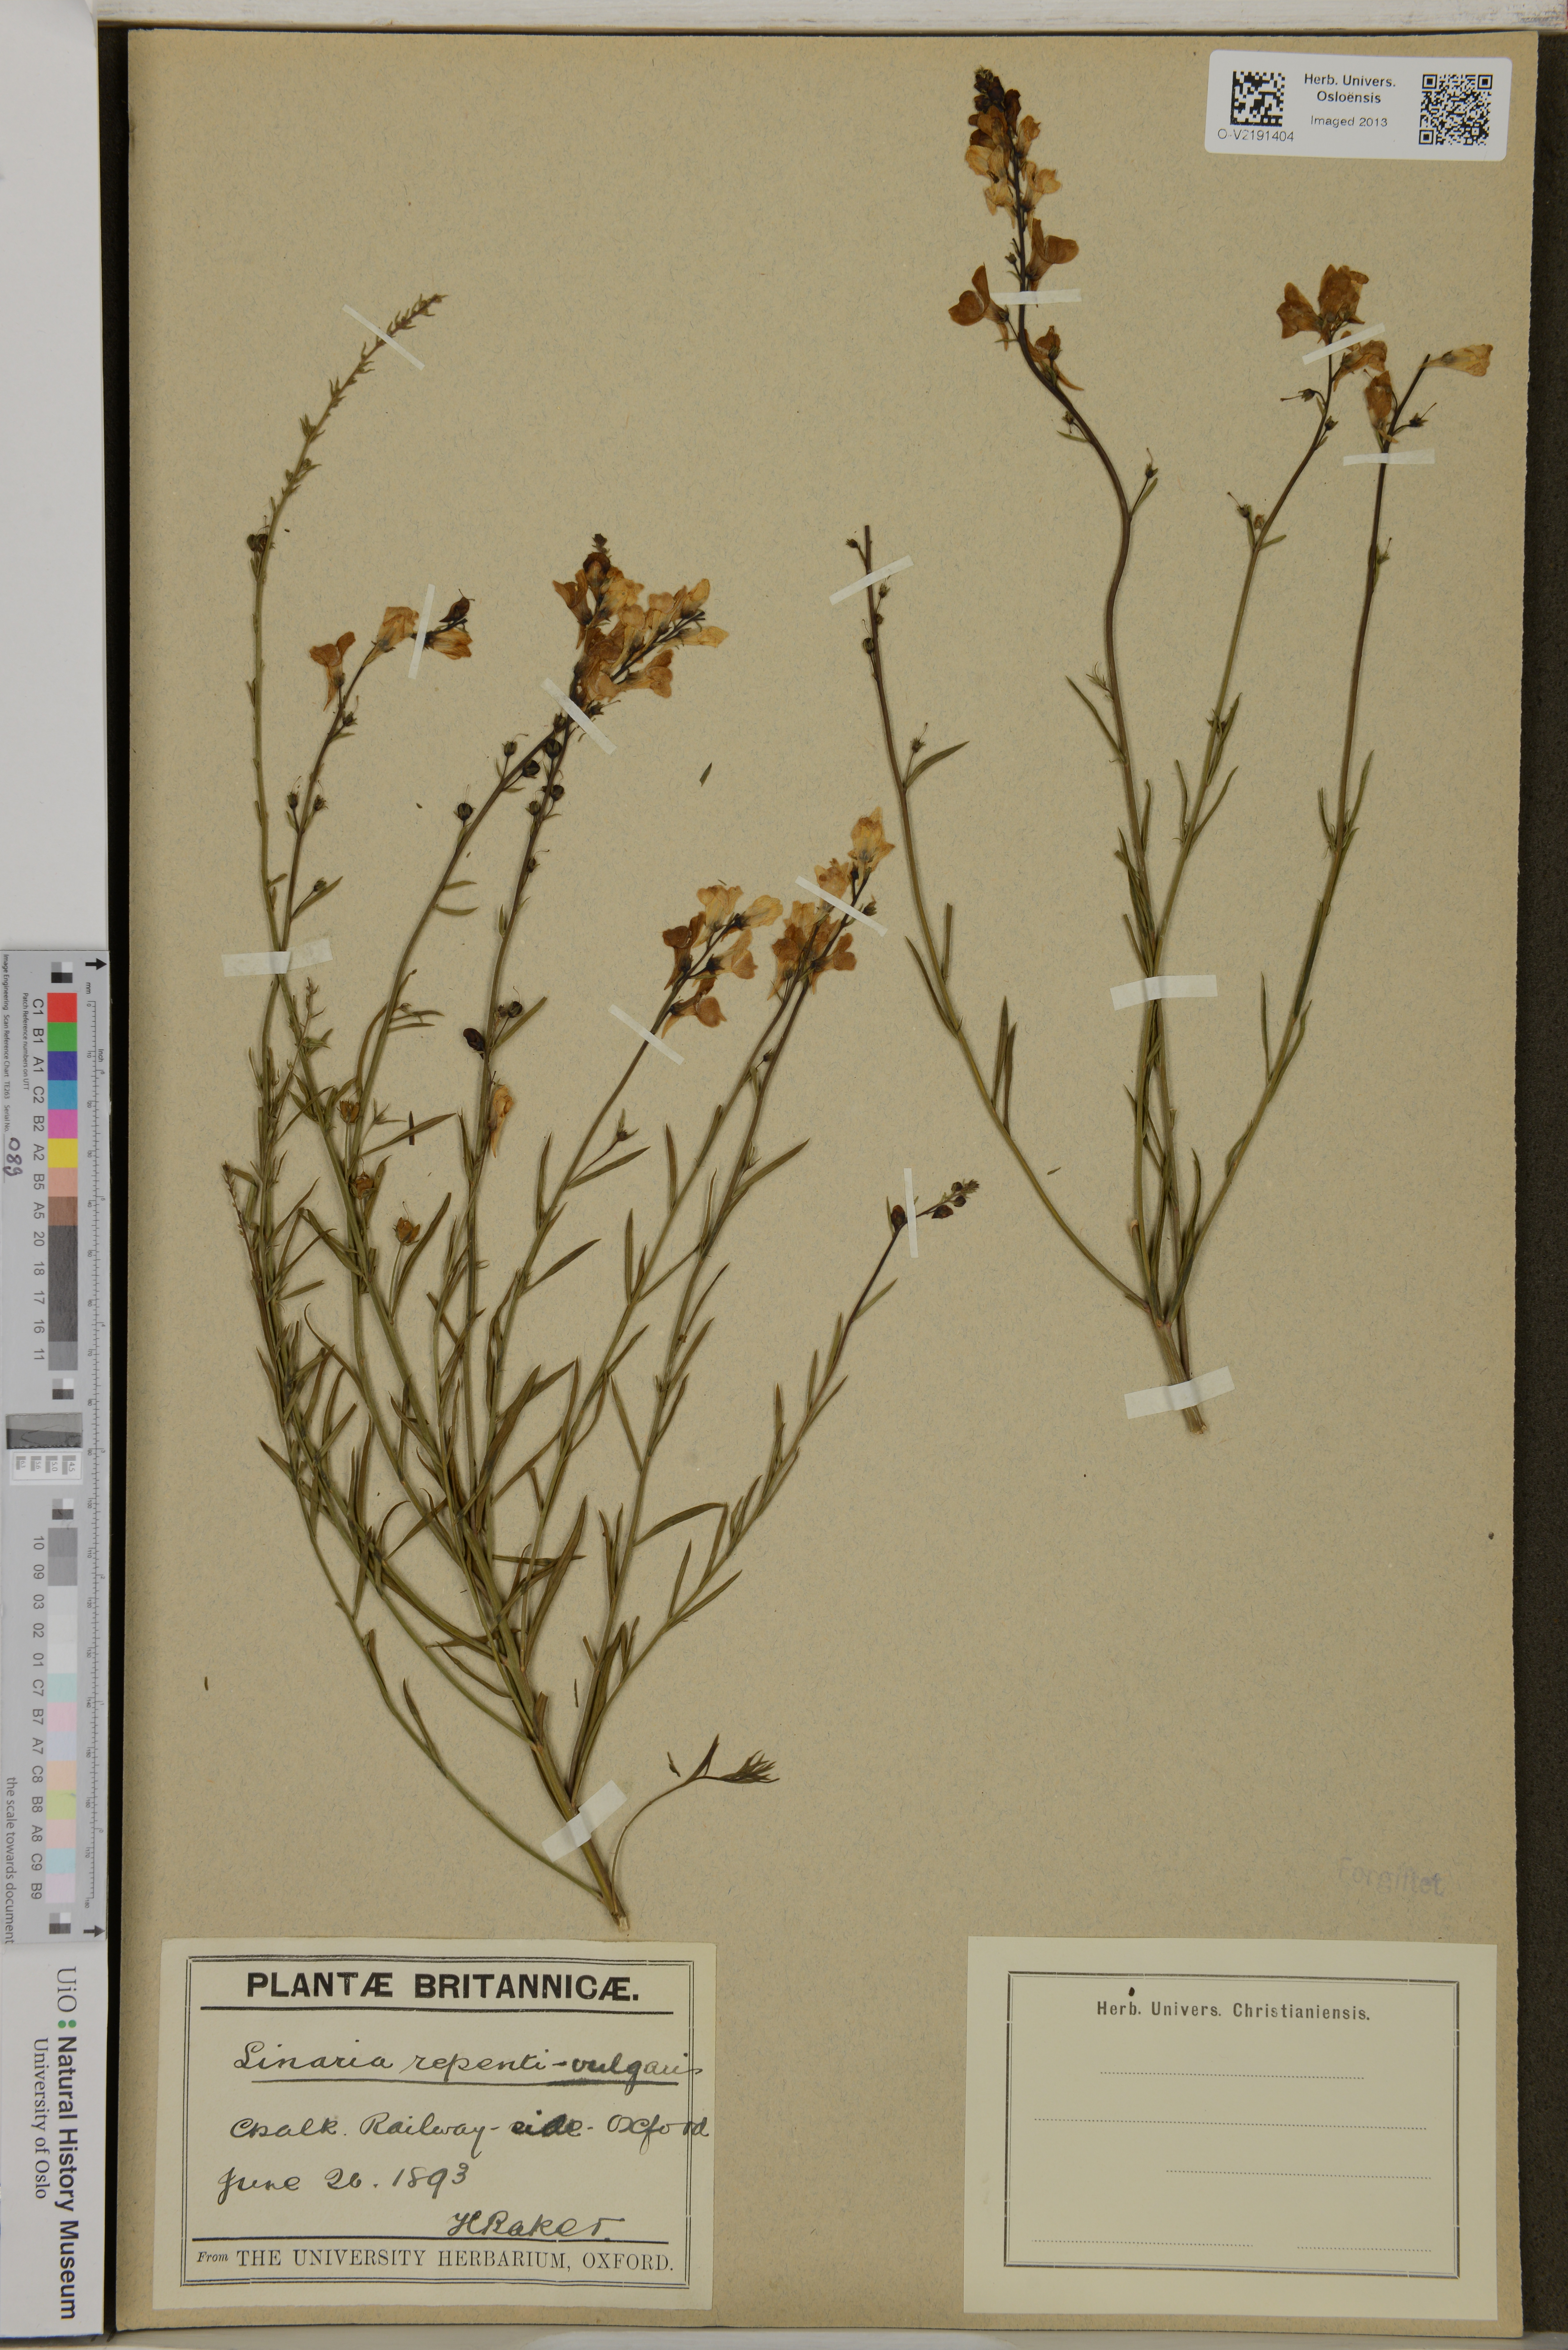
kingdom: Plantae
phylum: Tracheophyta
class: Magnoliopsida
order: Lamiales
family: Plantaginaceae
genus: Linaria
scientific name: Linaria
